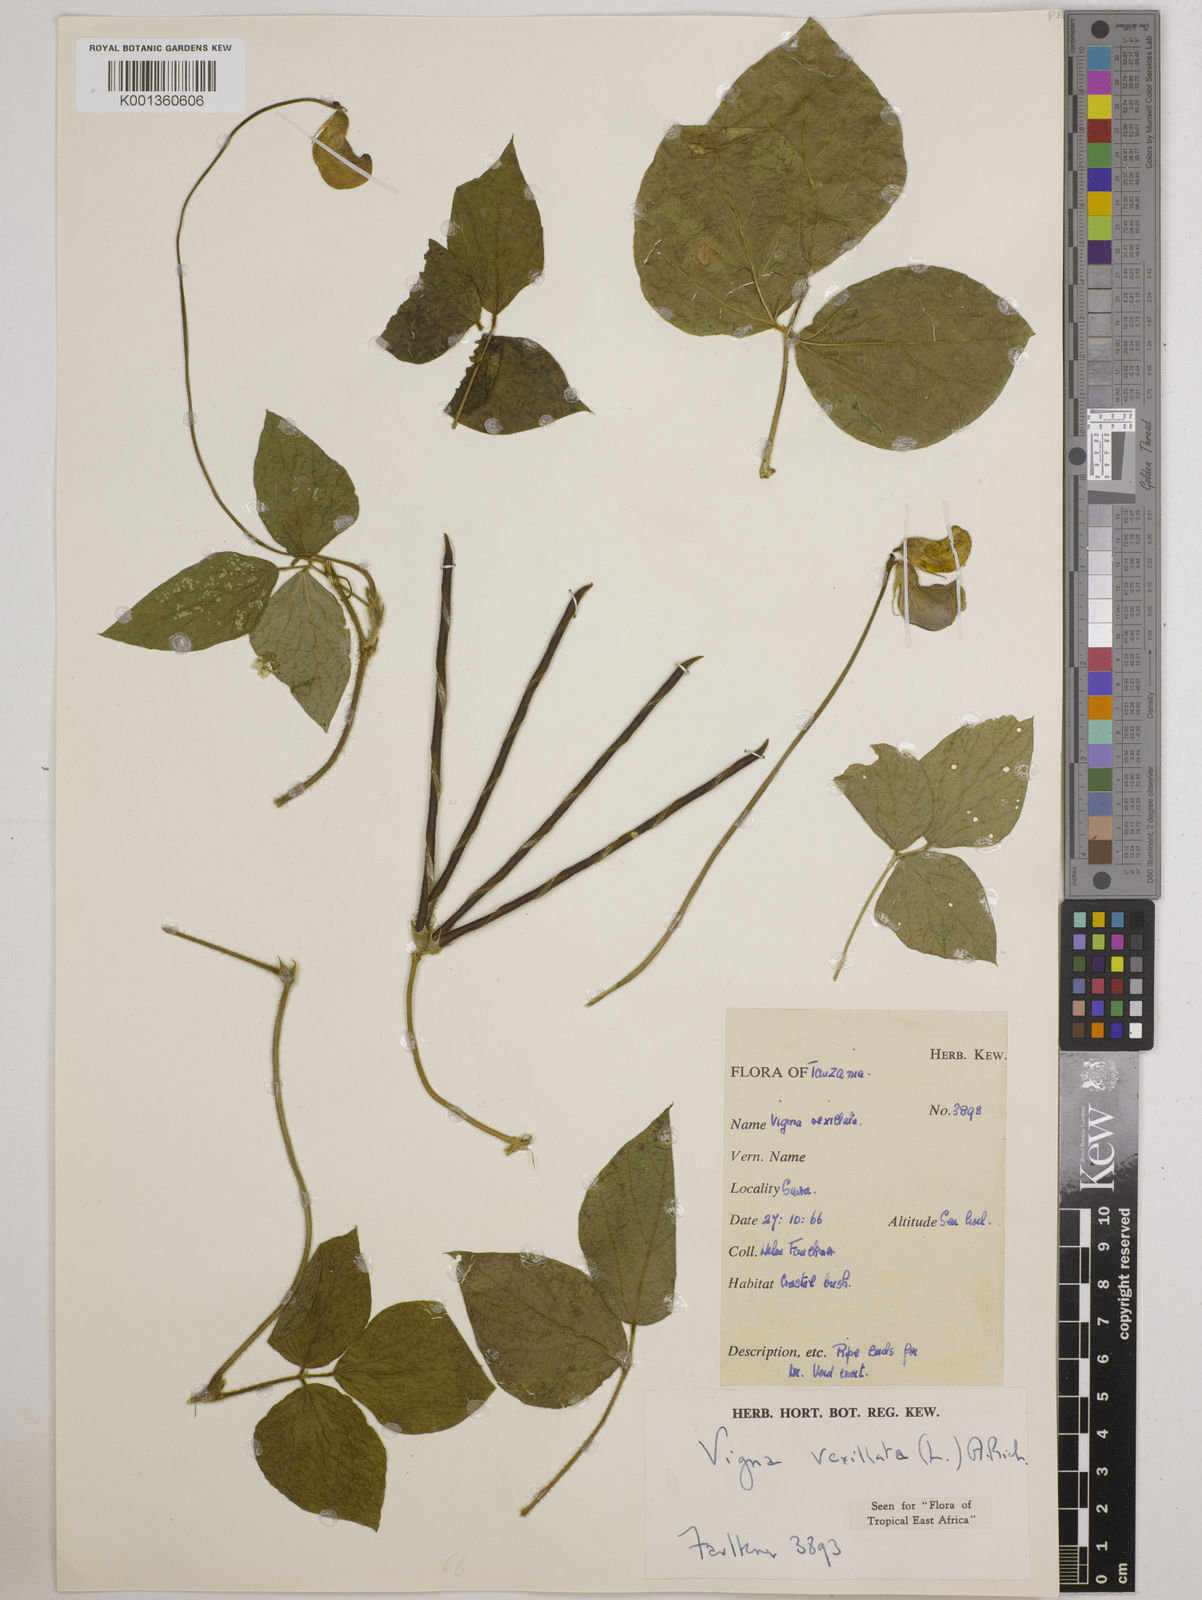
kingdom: Plantae
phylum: Tracheophyta
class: Magnoliopsida
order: Fabales
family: Fabaceae
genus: Vigna
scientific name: Vigna vexillata
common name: Zombi pea
